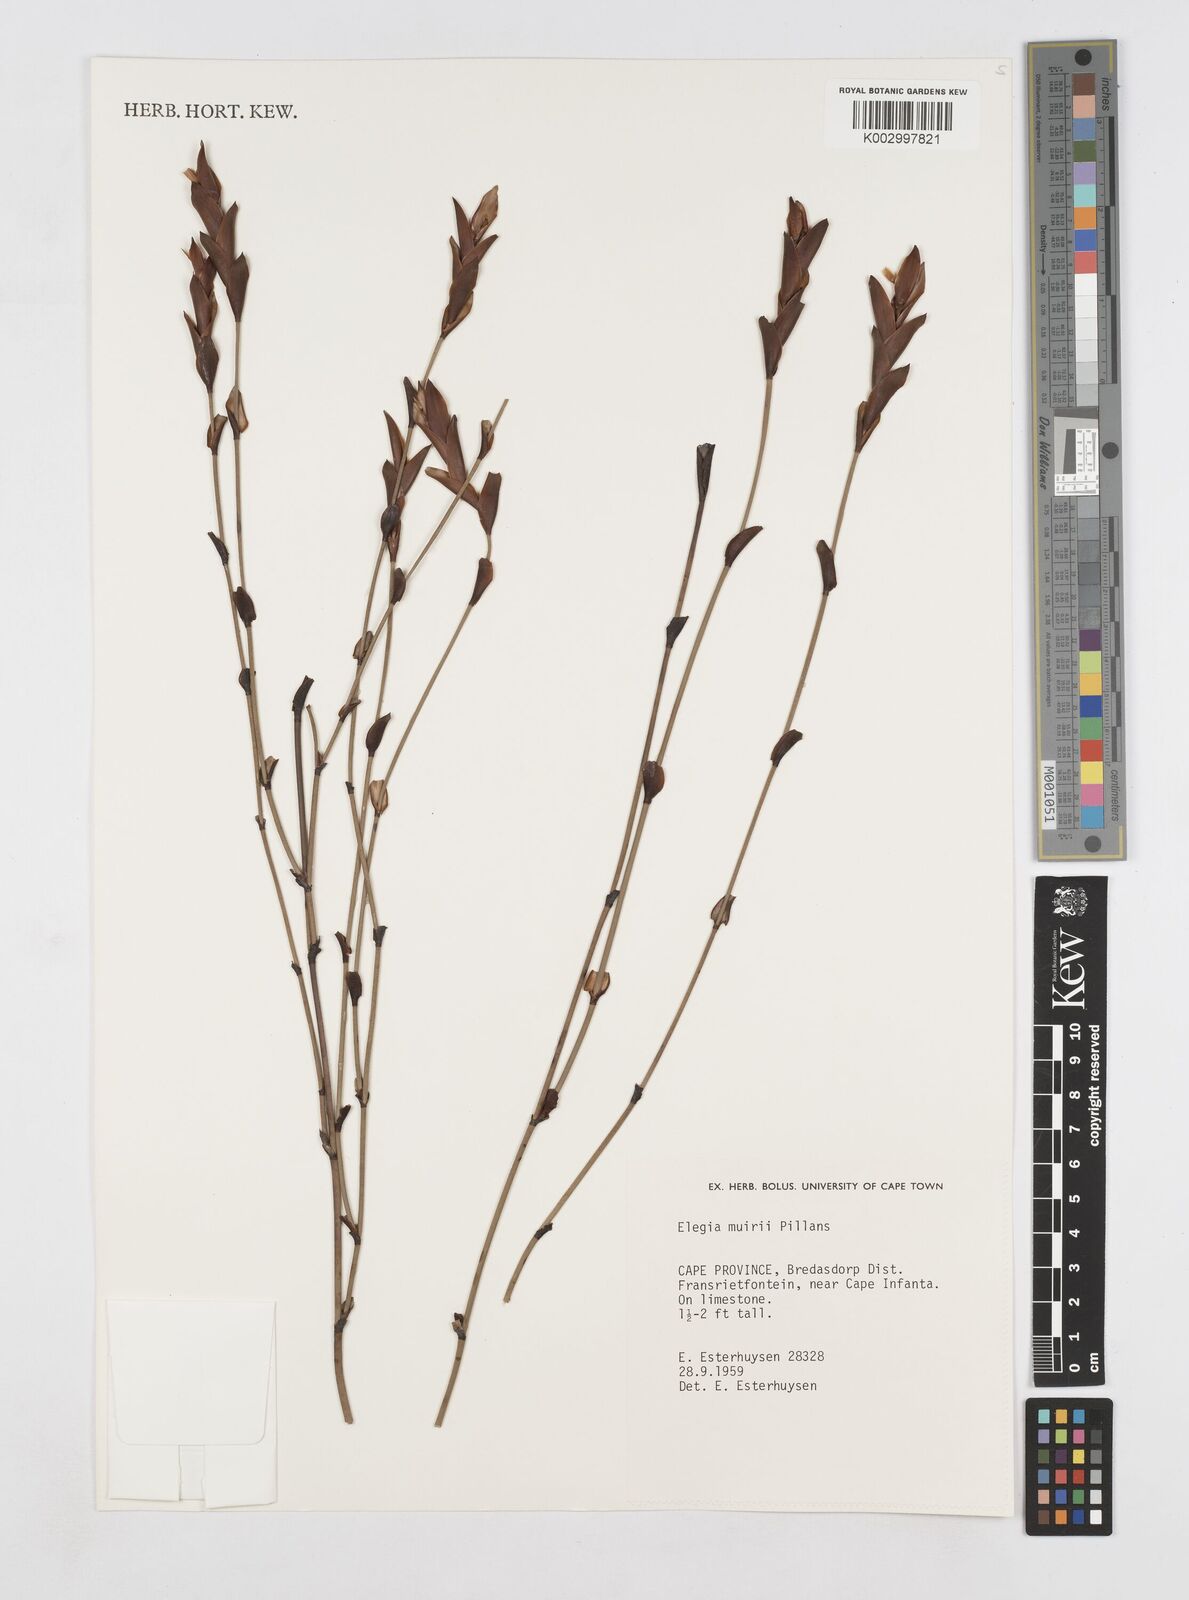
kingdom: Plantae
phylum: Tracheophyta
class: Liliopsida
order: Poales
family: Restionaceae
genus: Elegia
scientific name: Elegia muirii
